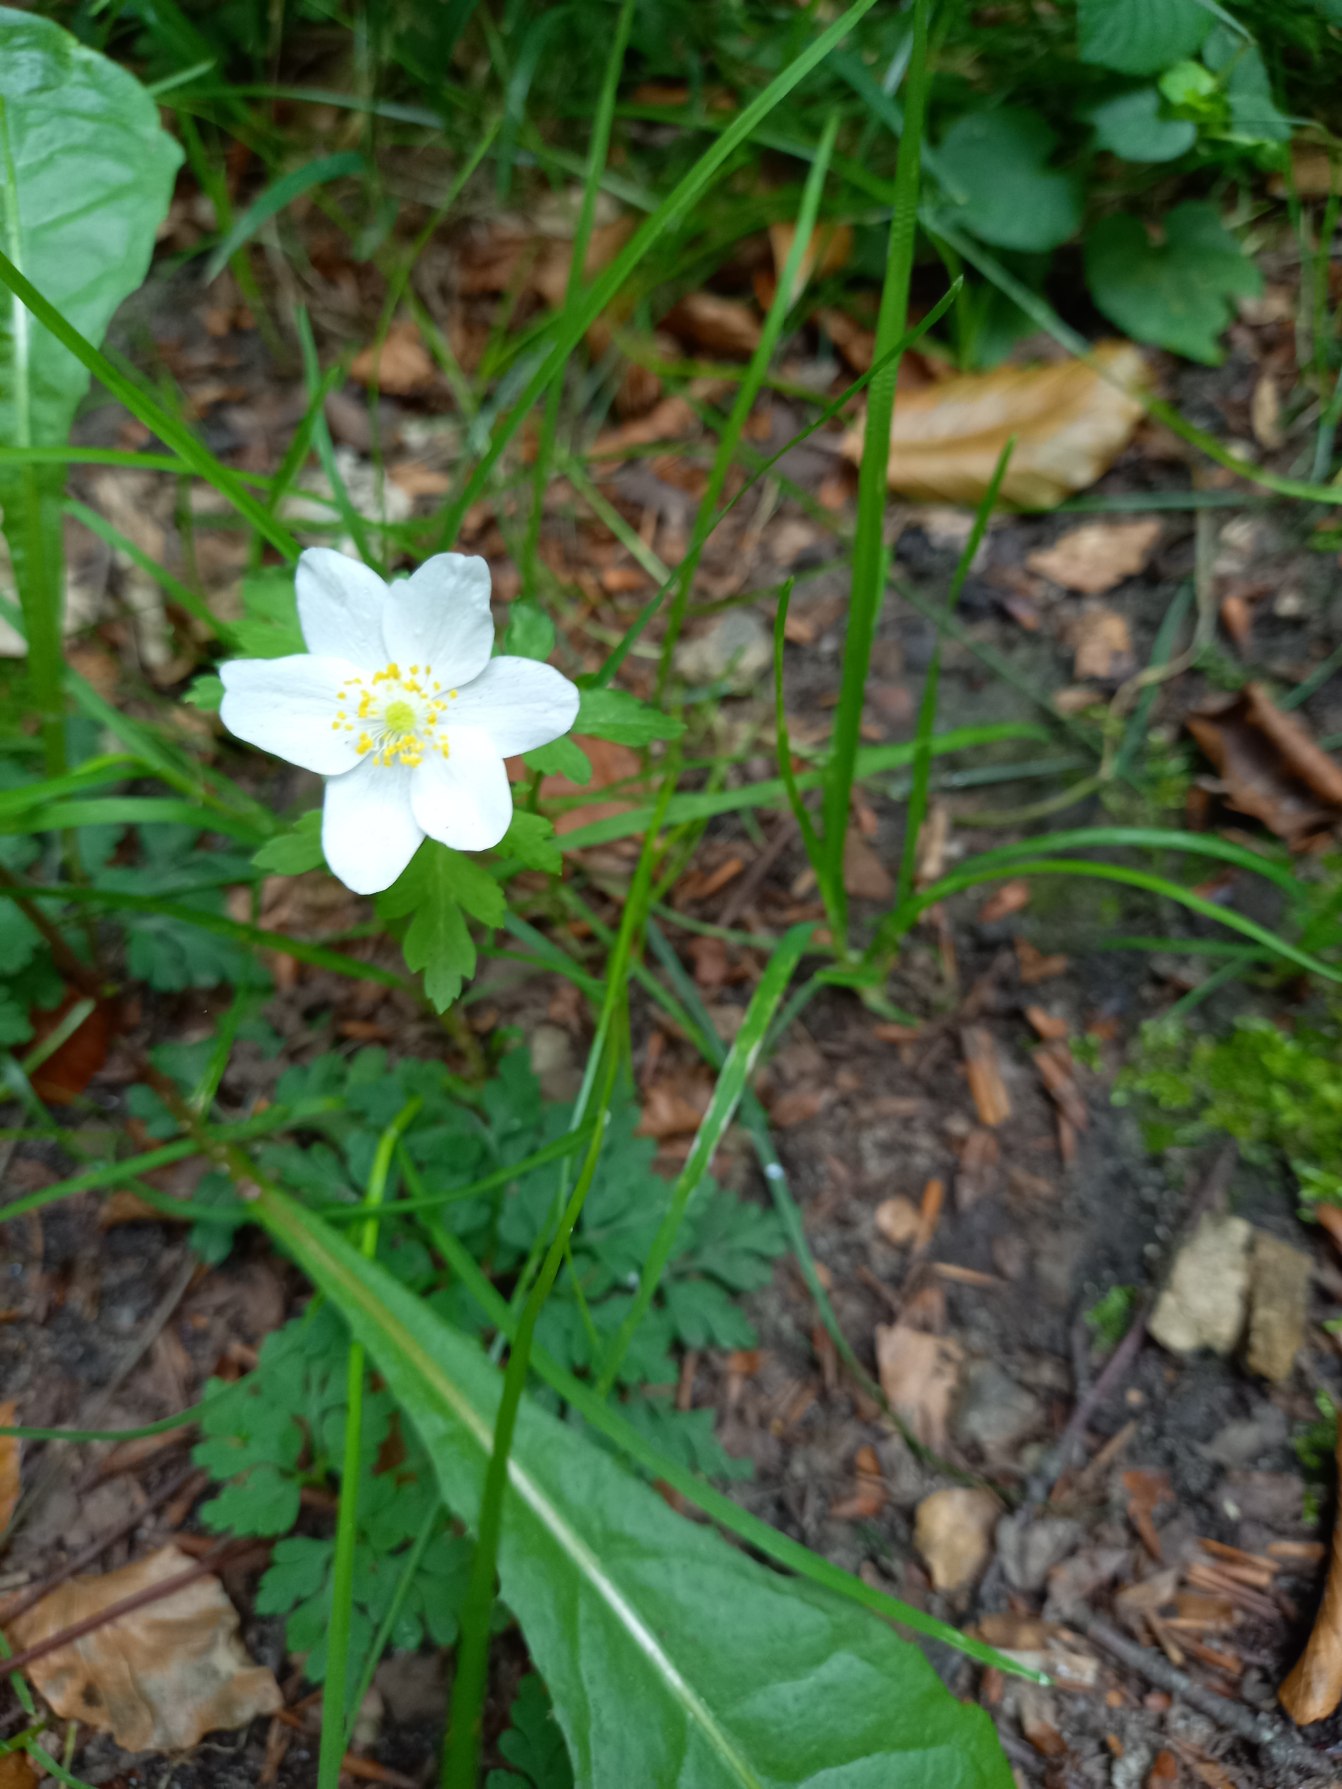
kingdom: Plantae
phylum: Tracheophyta
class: Magnoliopsida
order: Ranunculales
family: Ranunculaceae
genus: Anemone
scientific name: Anemone nemorosa
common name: Hvid anemone
